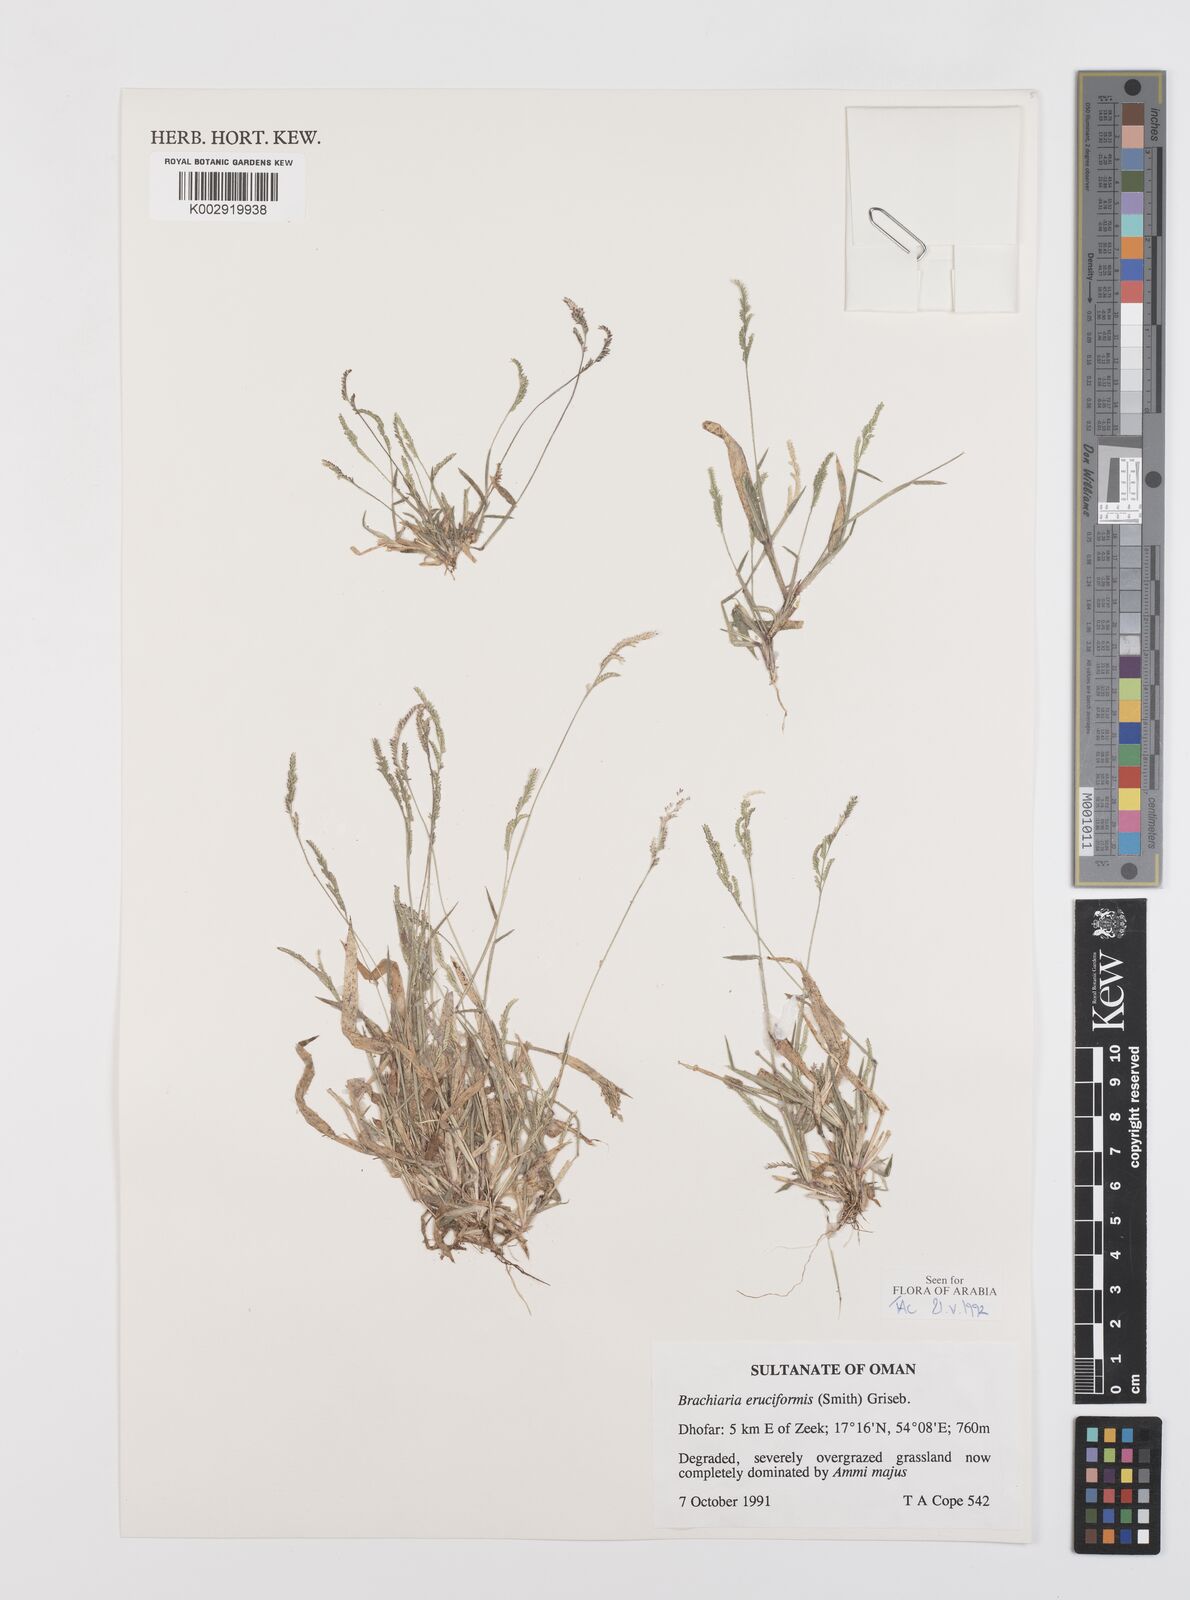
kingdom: Plantae
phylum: Tracheophyta
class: Liliopsida
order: Poales
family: Poaceae
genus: Moorochloa
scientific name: Moorochloa eruciformis
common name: Sweet signalgrass
